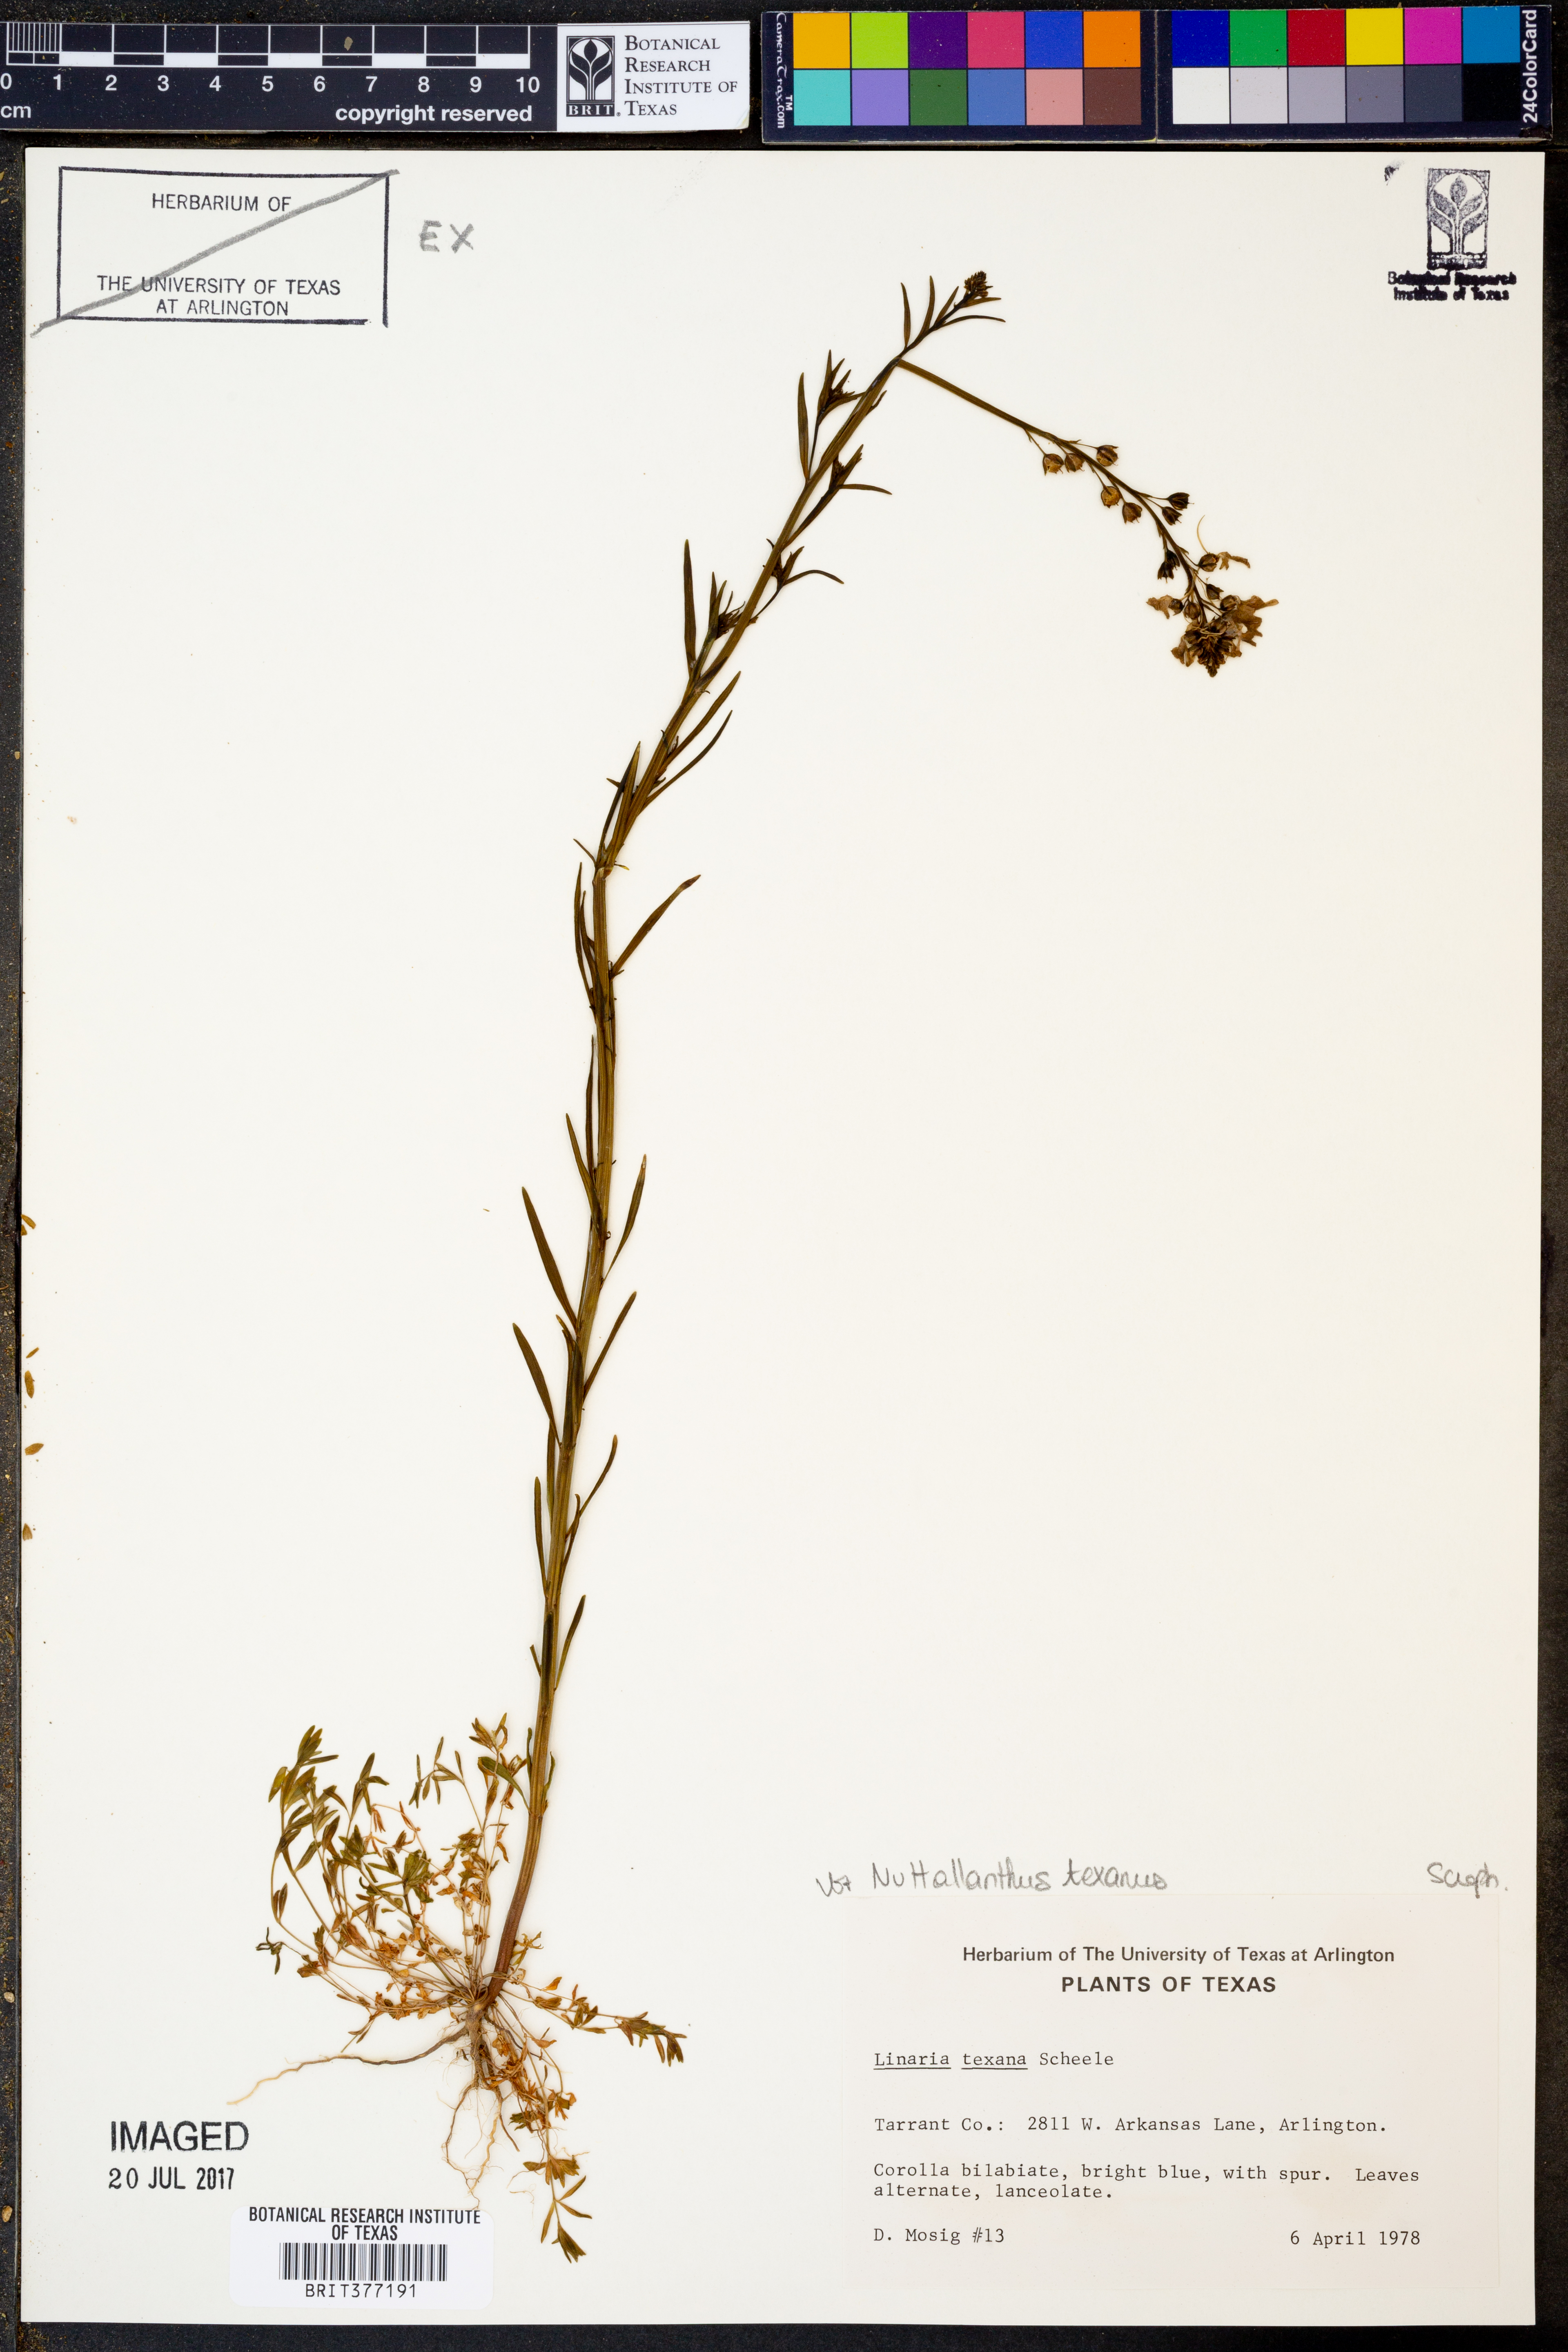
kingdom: Plantae
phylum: Tracheophyta
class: Magnoliopsida
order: Lamiales
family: Plantaginaceae
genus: Nuttallanthus
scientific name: Nuttallanthus texanus
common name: Texas toadflax
